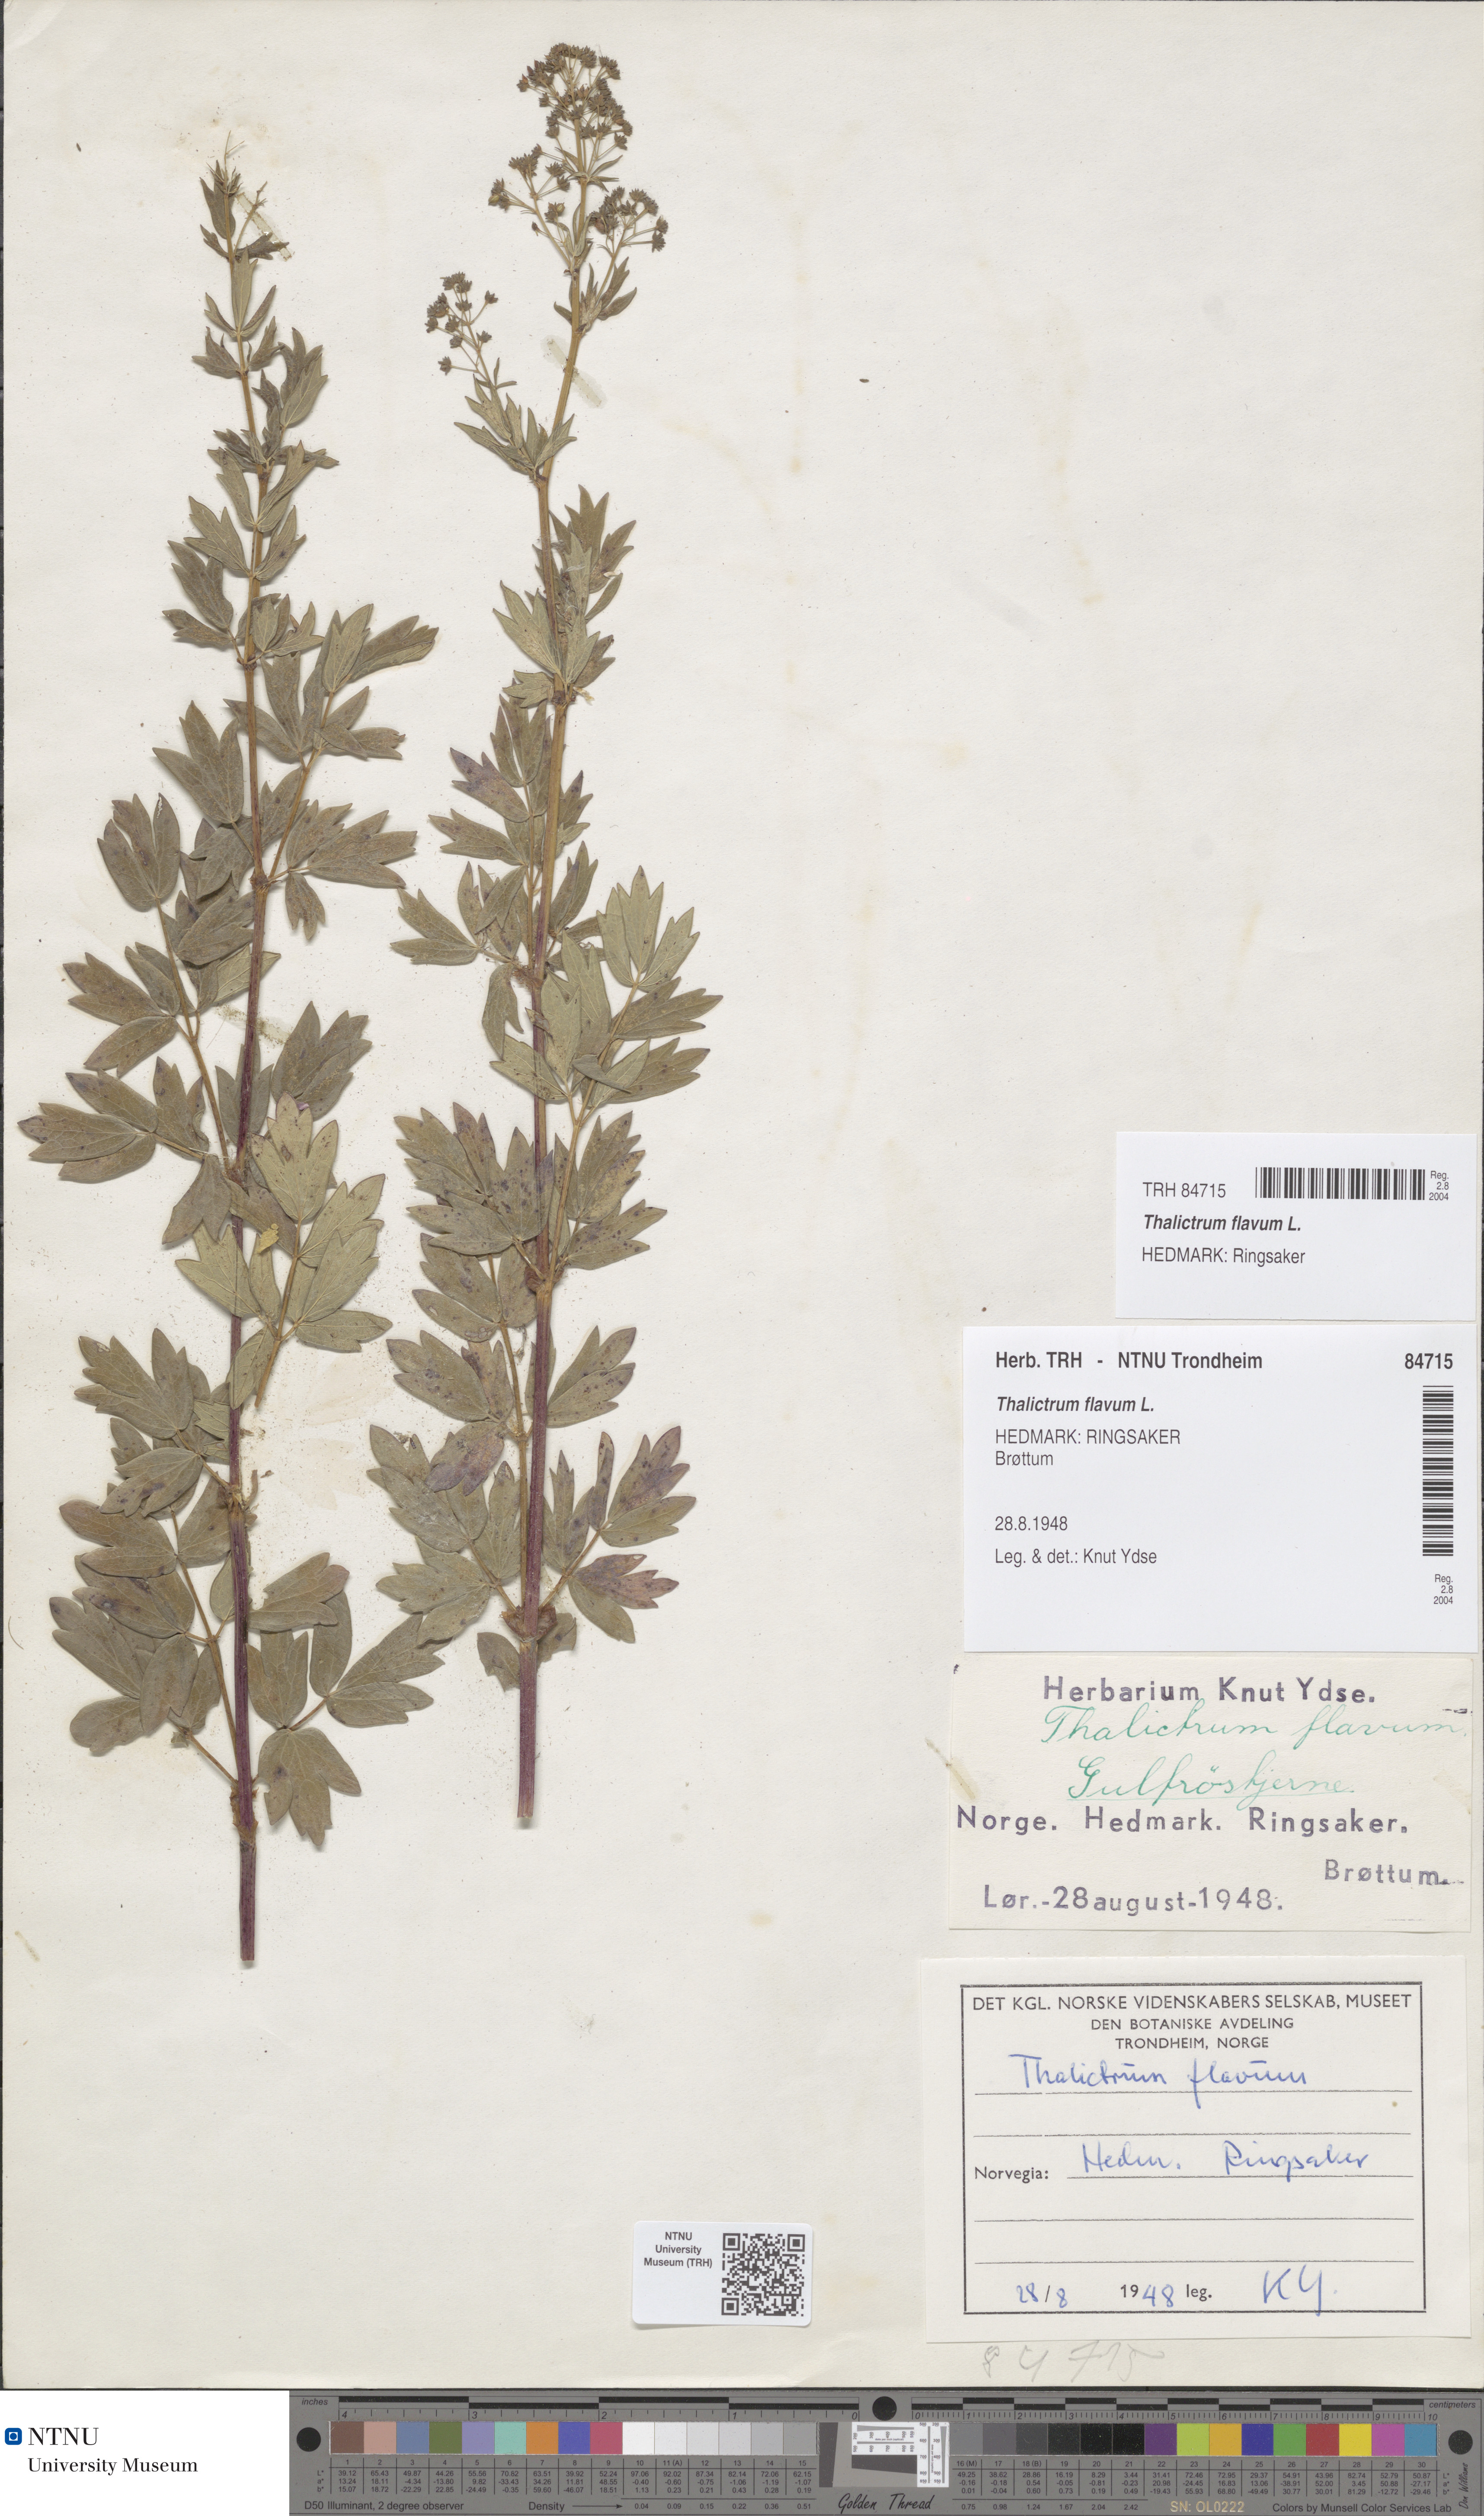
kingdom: Plantae
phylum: Tracheophyta
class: Magnoliopsida
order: Ranunculales
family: Ranunculaceae
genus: Thalictrum
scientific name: Thalictrum flavum
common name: Common meadow-rue
